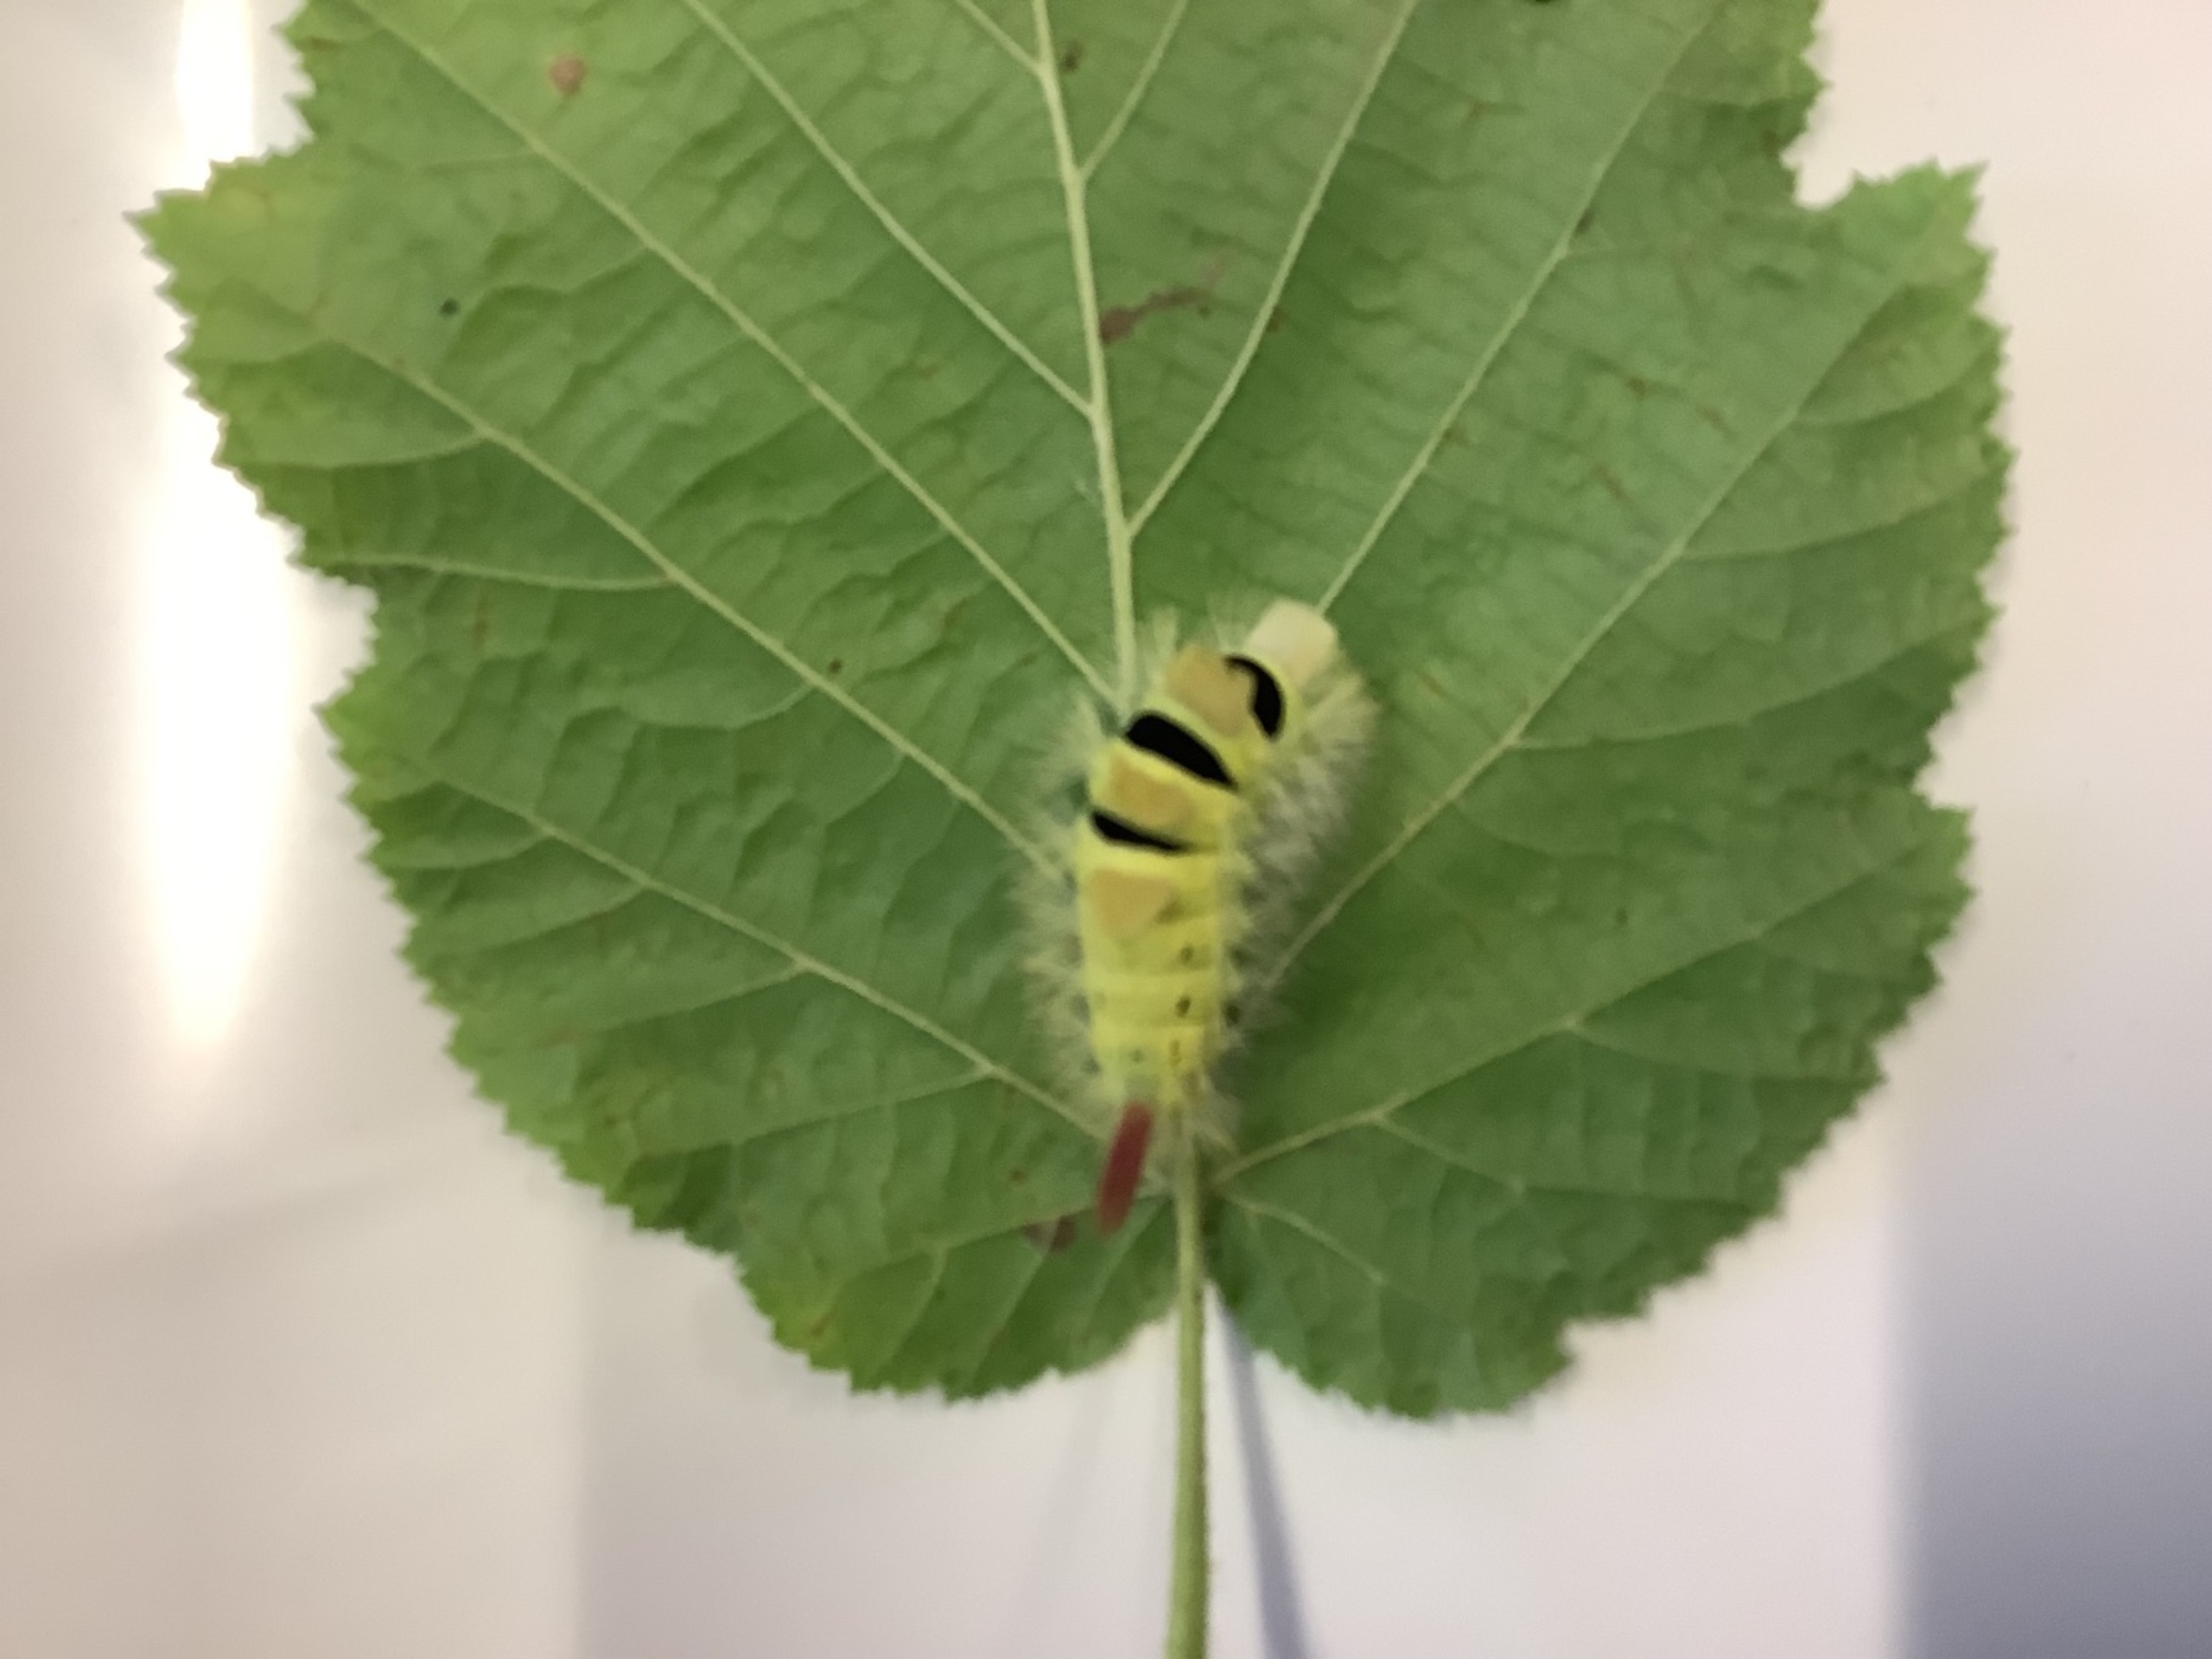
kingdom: Animalia
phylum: Arthropoda
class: Insecta
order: Lepidoptera
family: Erebidae
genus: Calliteara
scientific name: Calliteara pudibunda
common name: Bøgenonne
